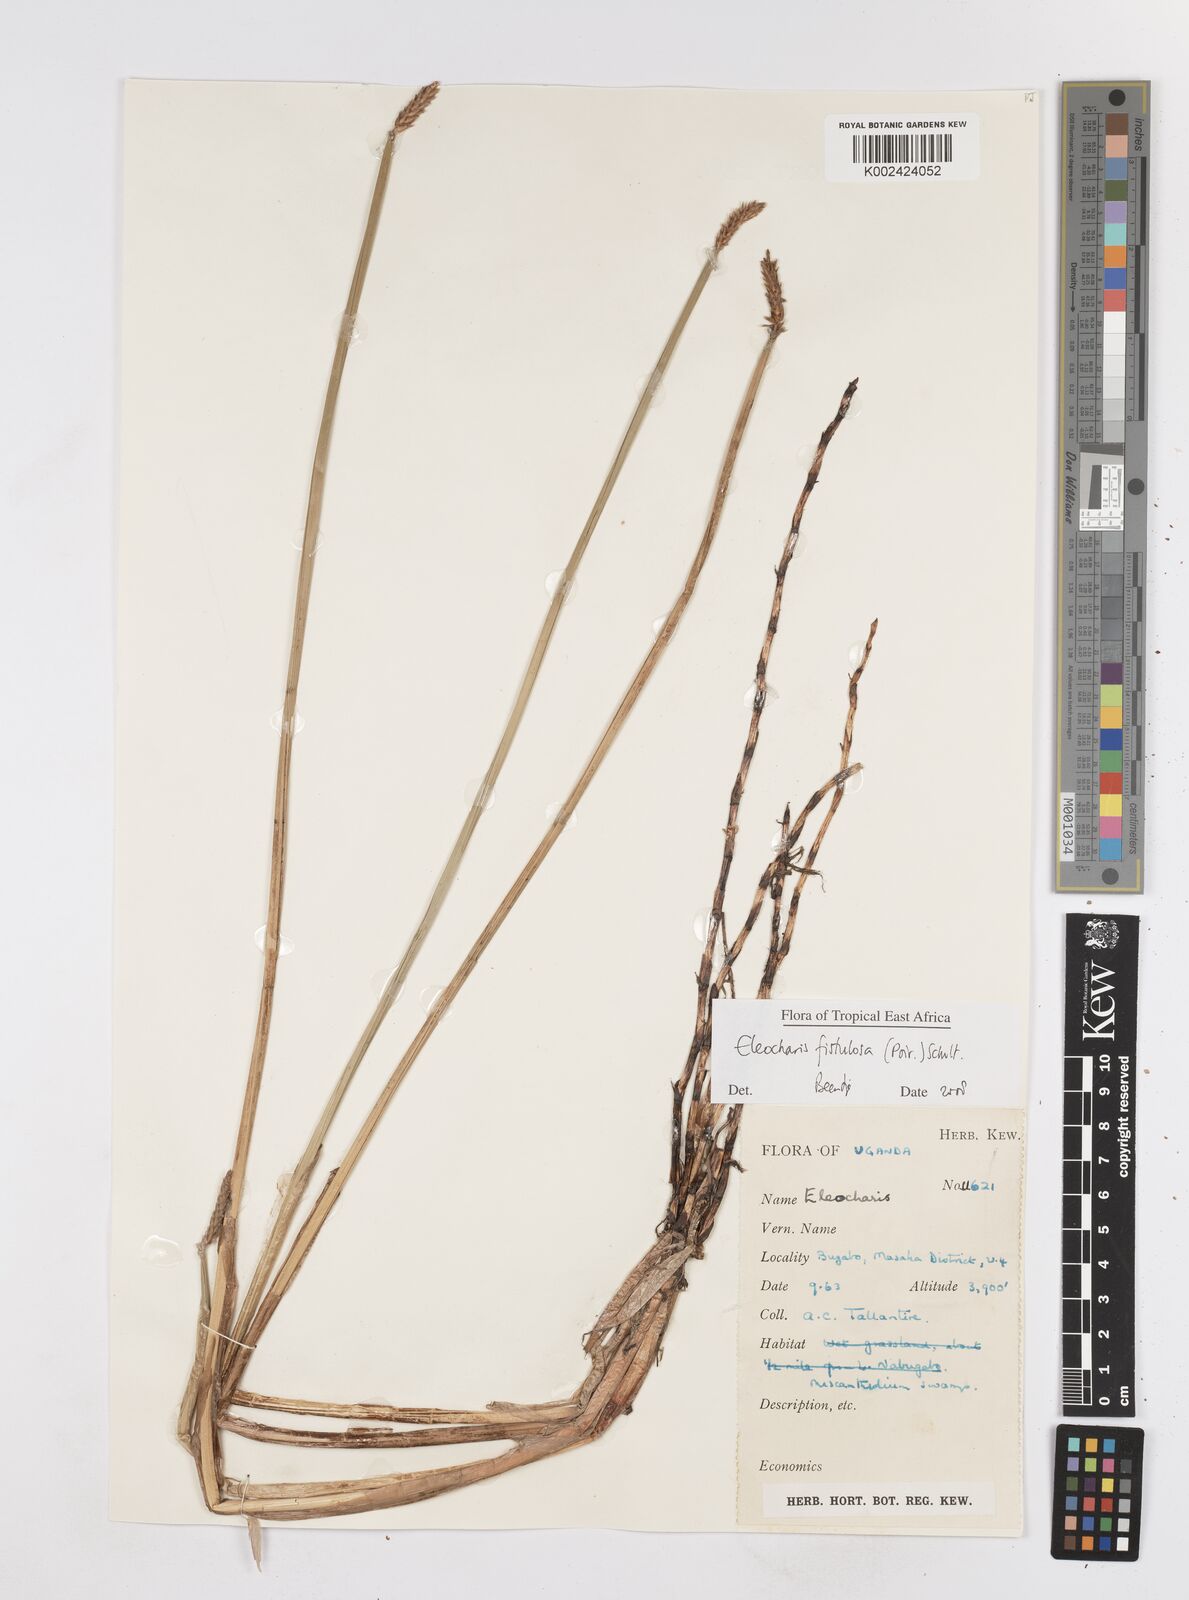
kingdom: Plantae
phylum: Tracheophyta
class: Liliopsida
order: Poales
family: Cyperaceae
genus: Eleocharis
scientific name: Eleocharis acutangula
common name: Acute spikerush
